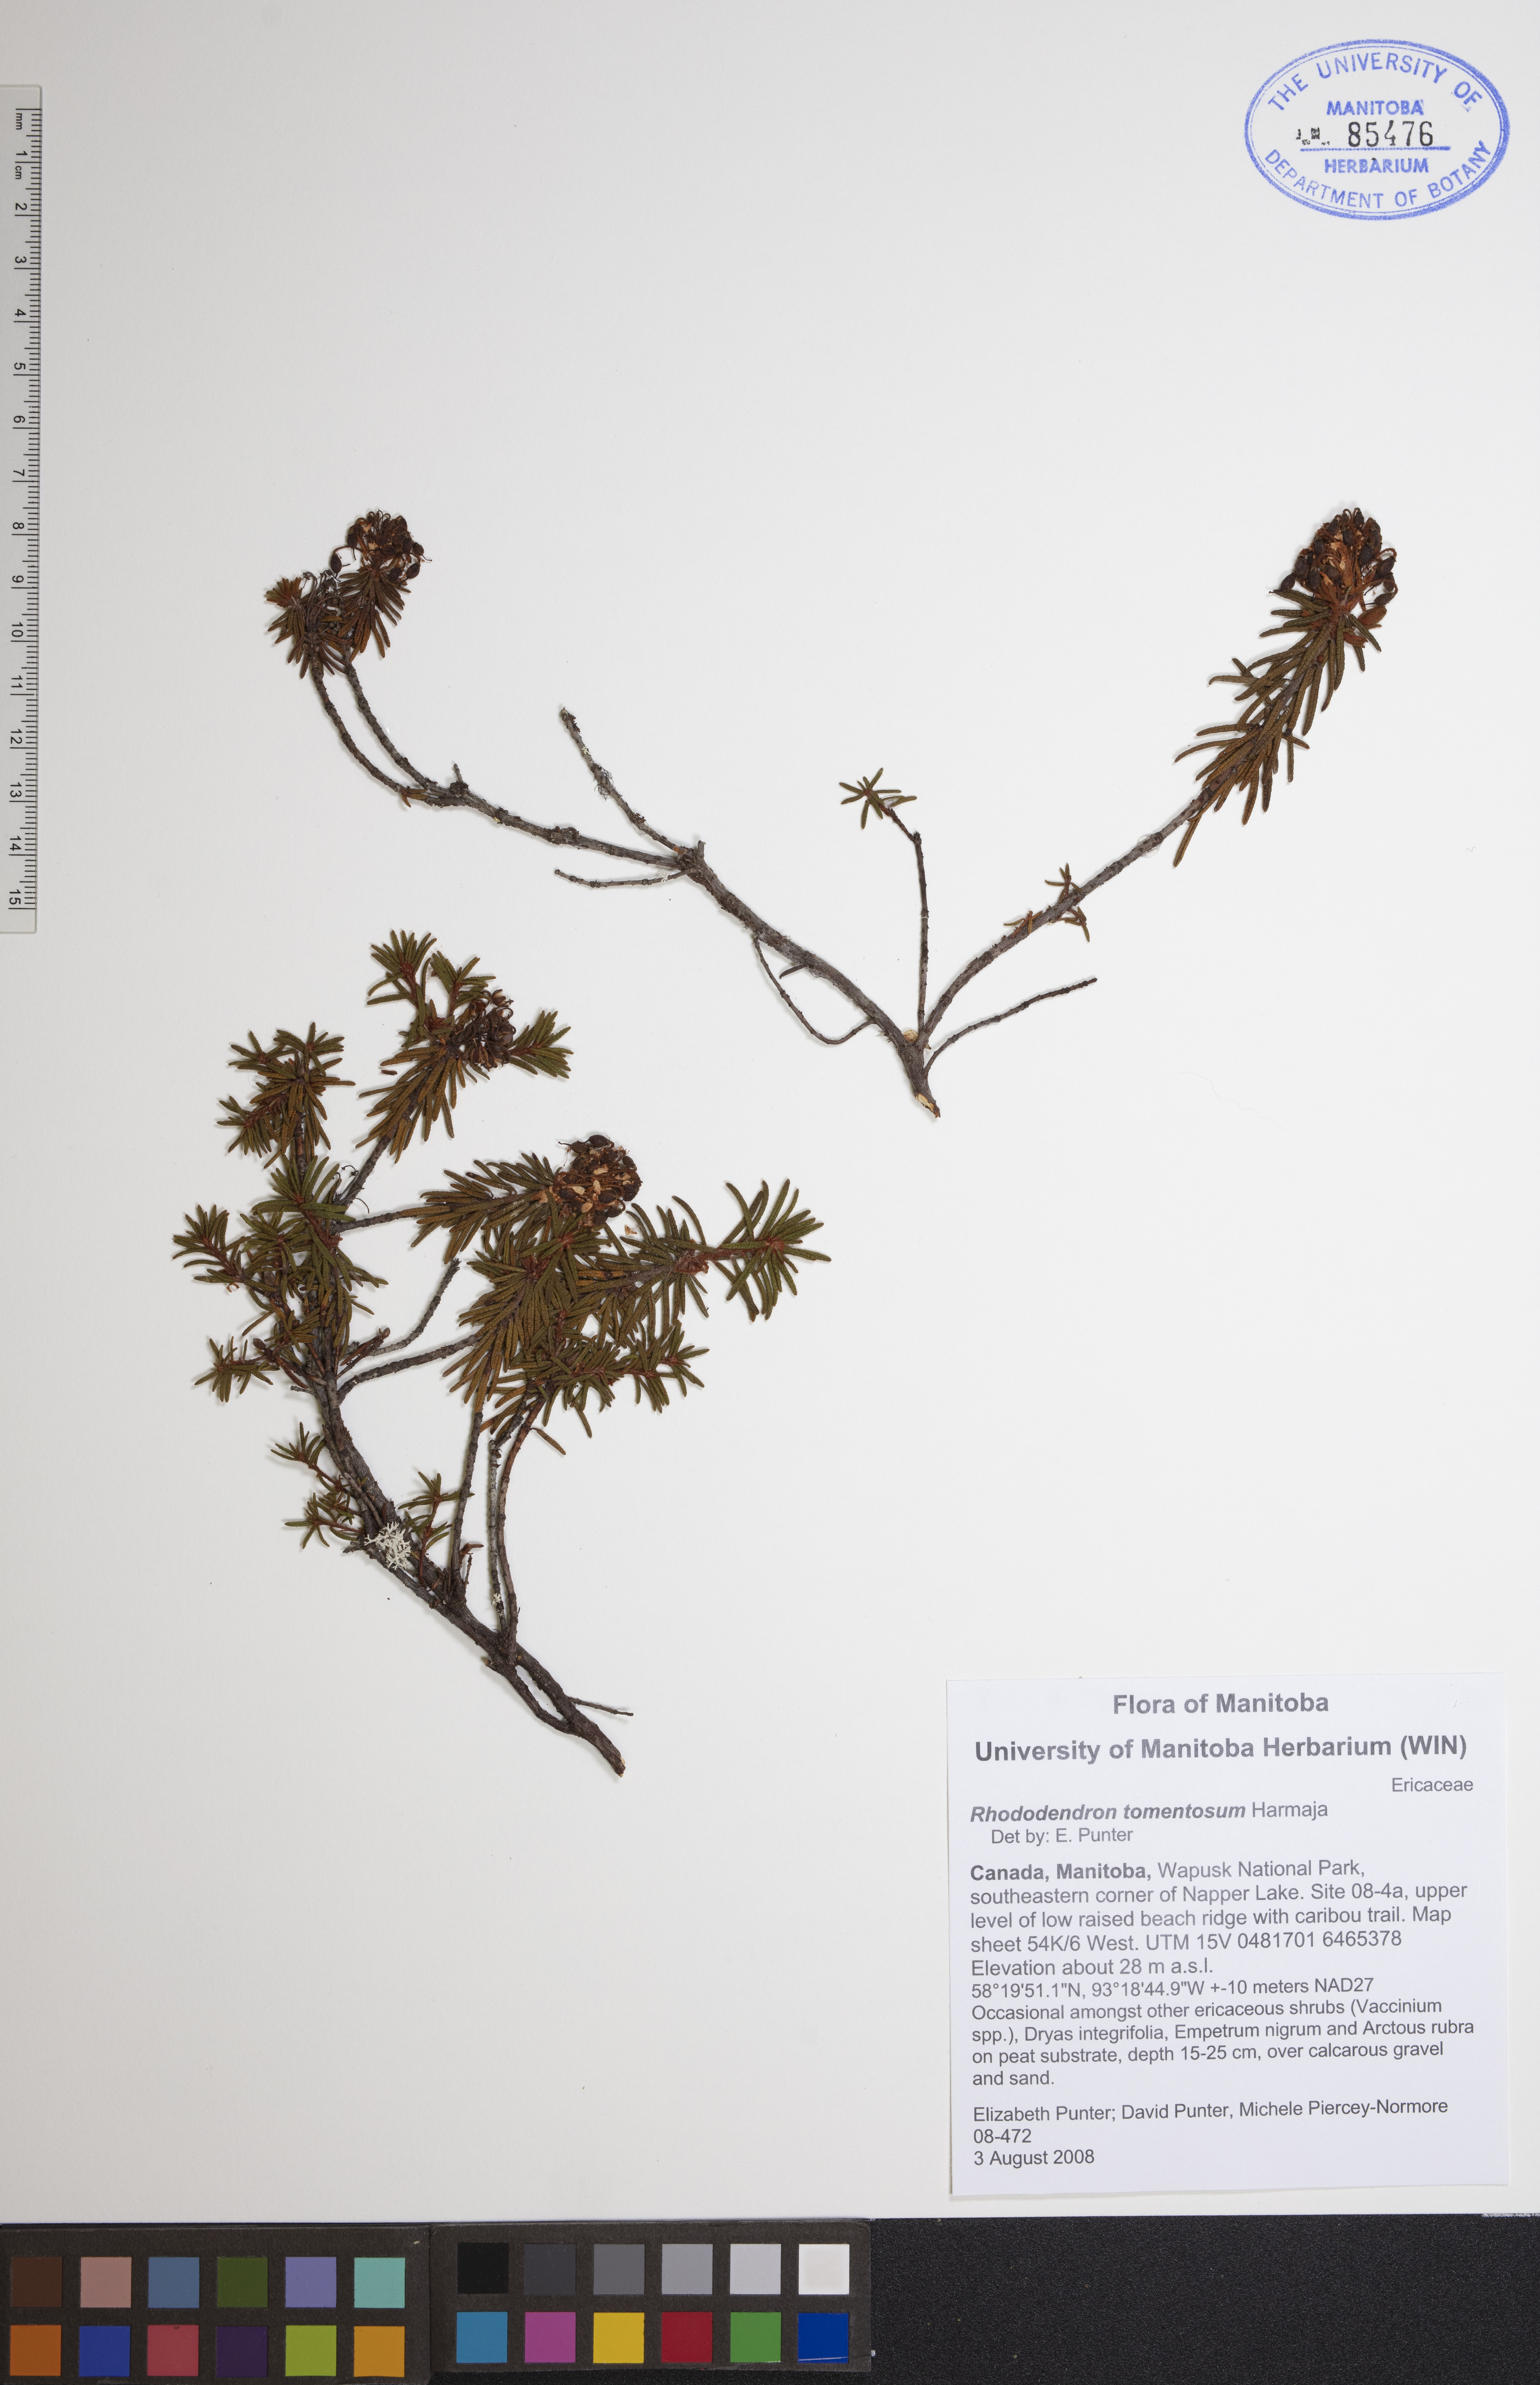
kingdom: Plantae
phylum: Tracheophyta
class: Magnoliopsida
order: Ericales
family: Ericaceae
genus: Rhododendron
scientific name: Rhododendron tomentosum
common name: Marsh labrador tea
